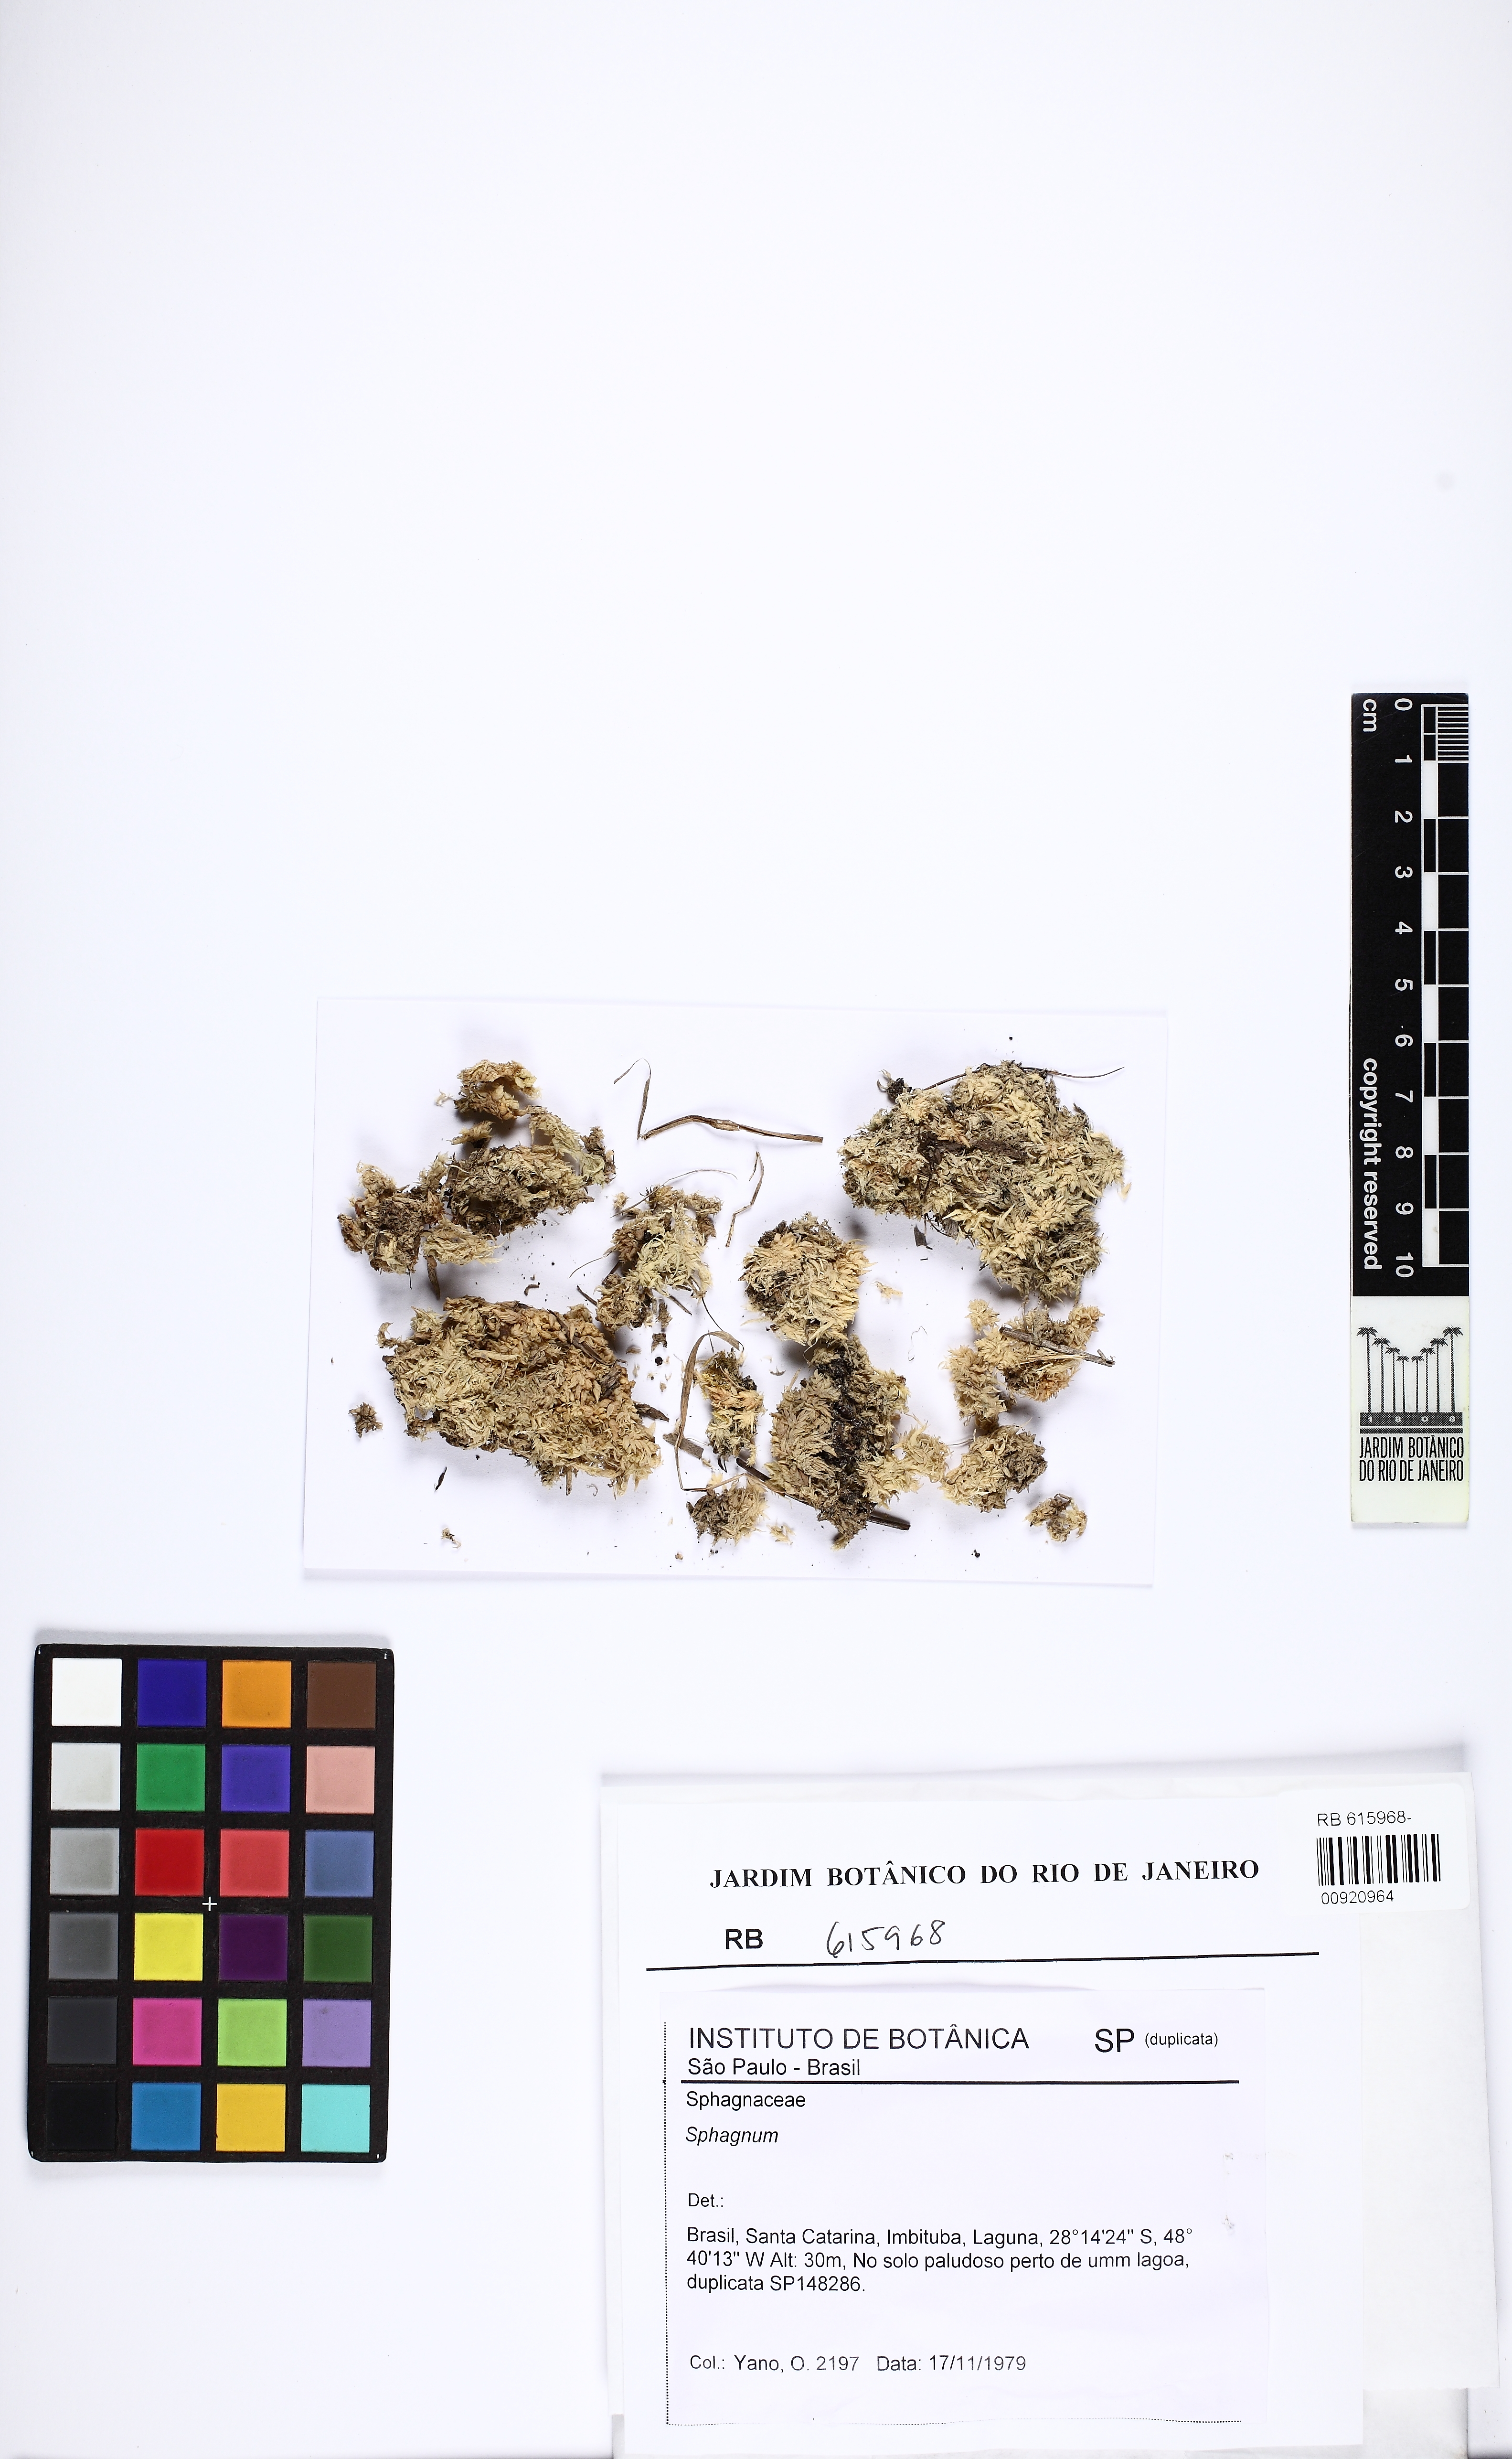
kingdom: Plantae
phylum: Bryophyta
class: Sphagnopsida
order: Sphagnales
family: Sphagnaceae
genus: Sphagnum
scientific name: Sphagnum billbuckii
